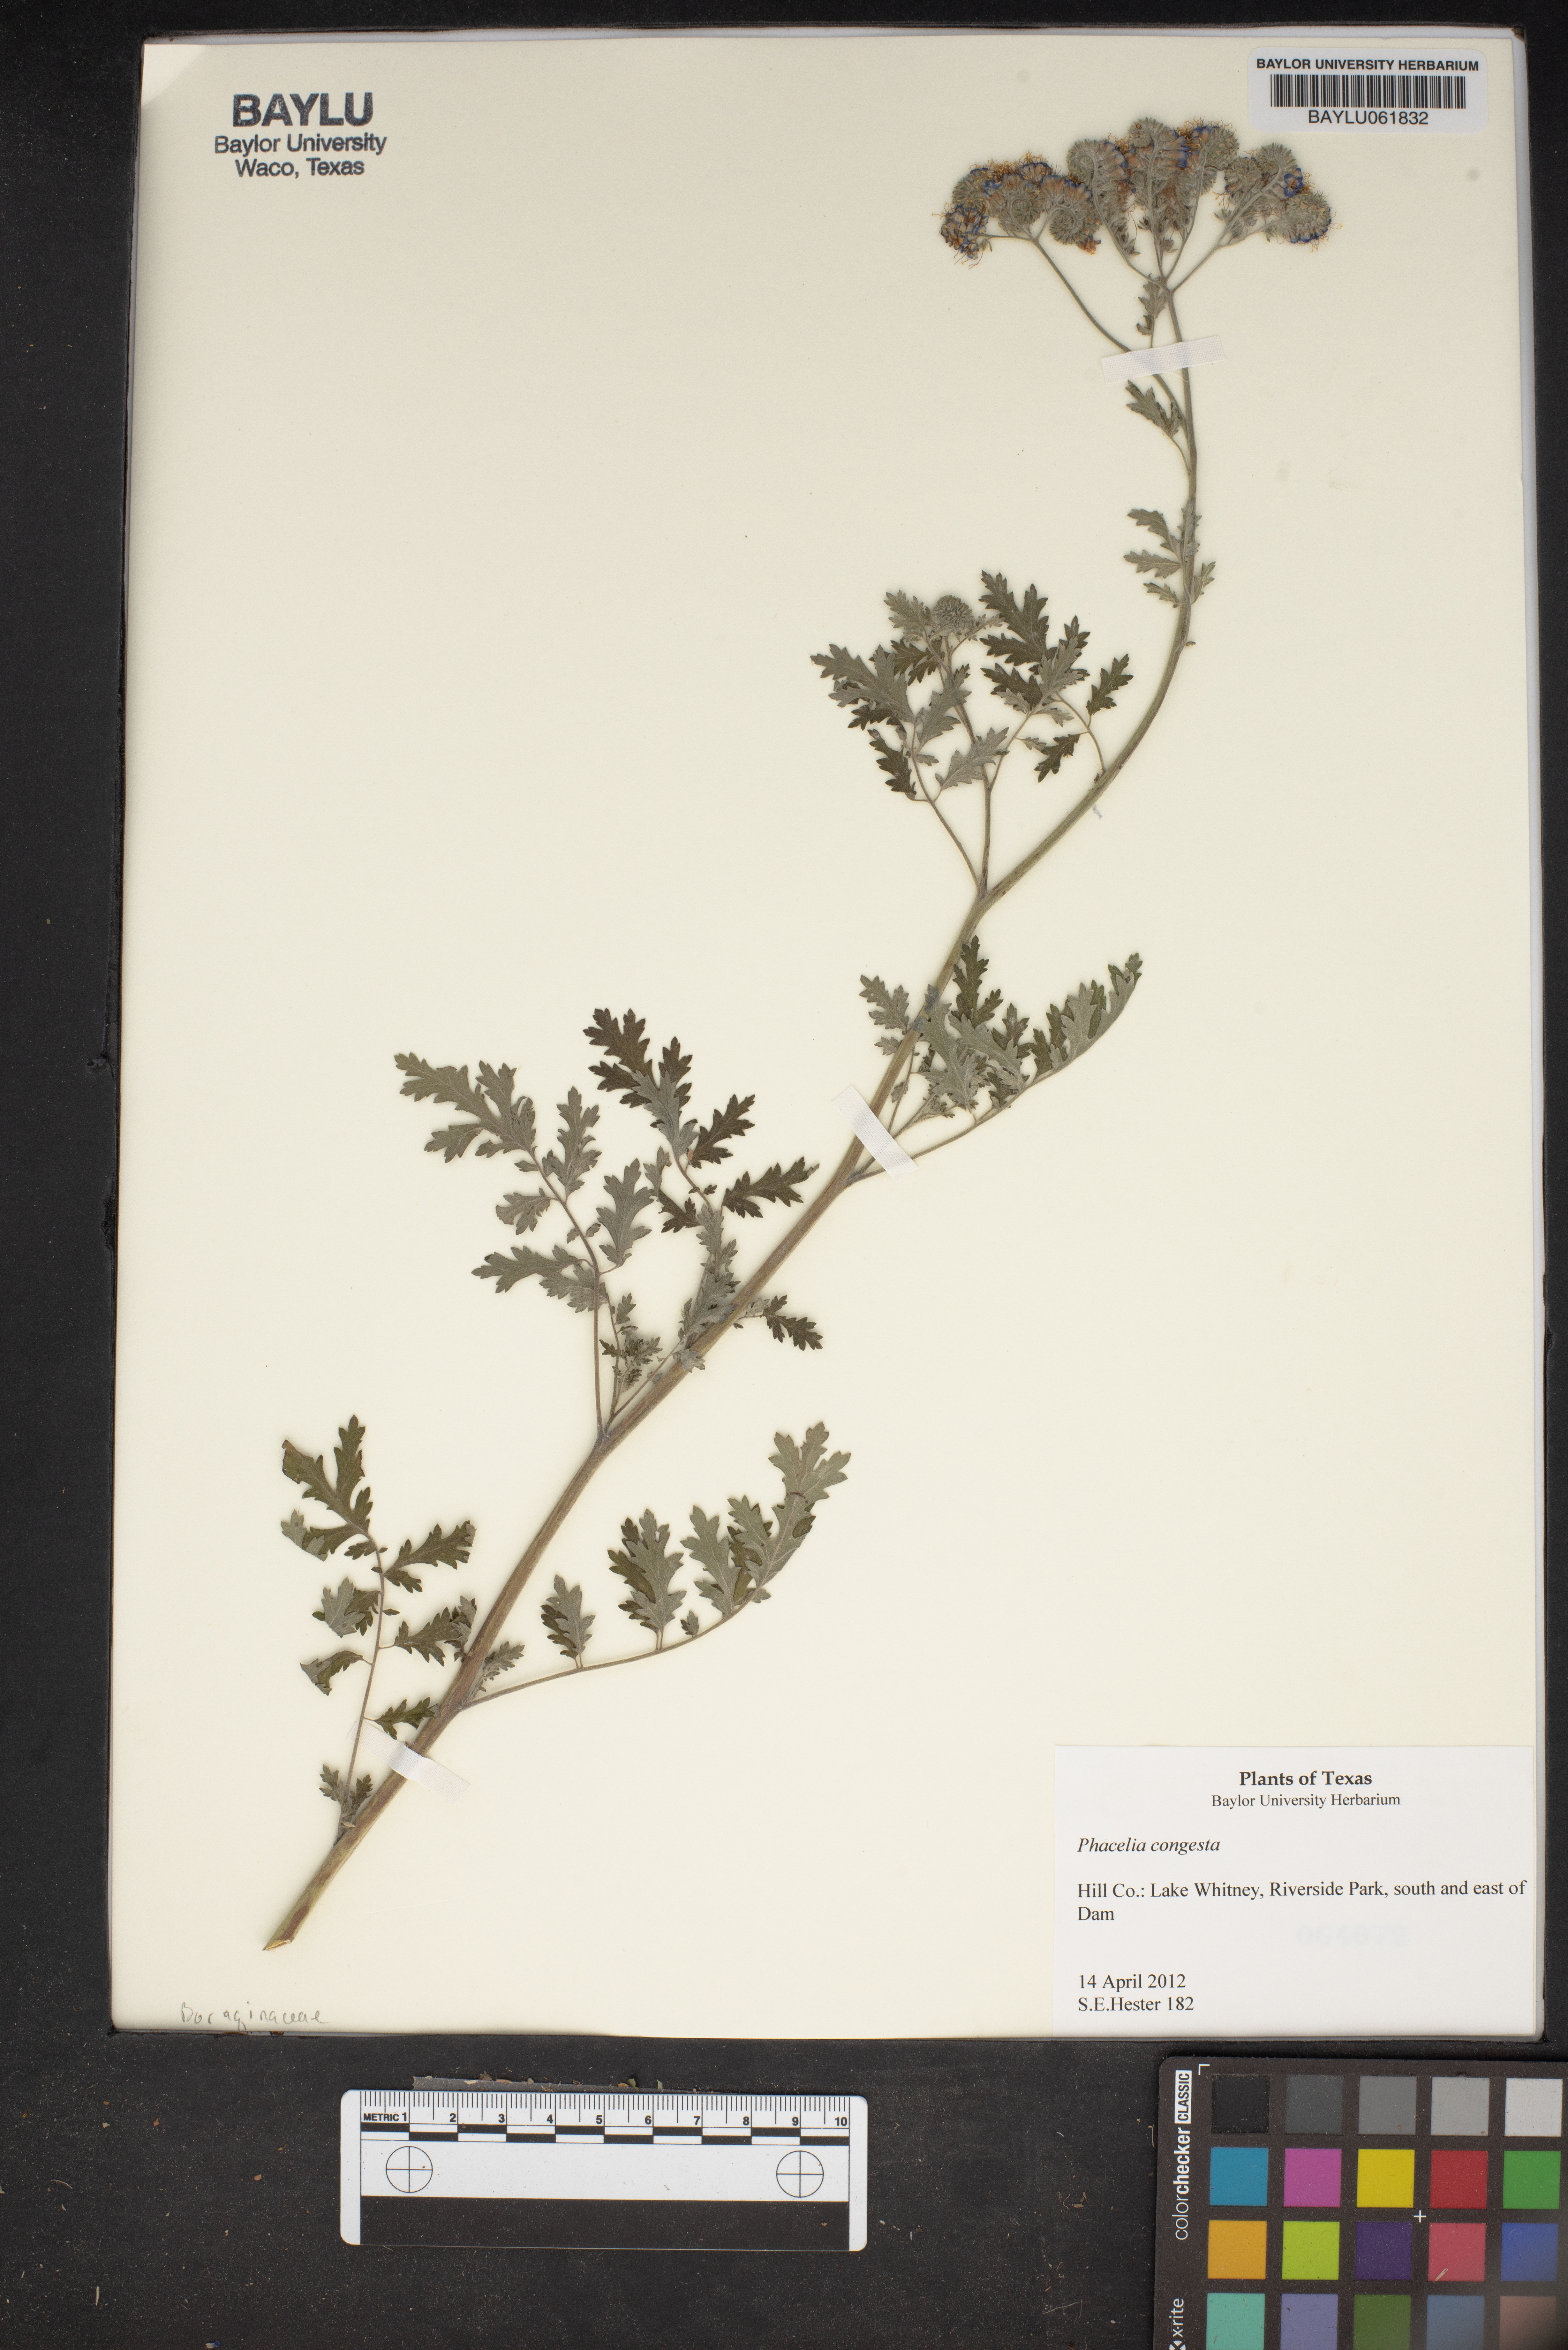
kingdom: Plantae
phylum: Tracheophyta
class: Magnoliopsida
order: Boraginales
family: Hydrophyllaceae
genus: Phacelia
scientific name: Phacelia congesta
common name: Blue curls
